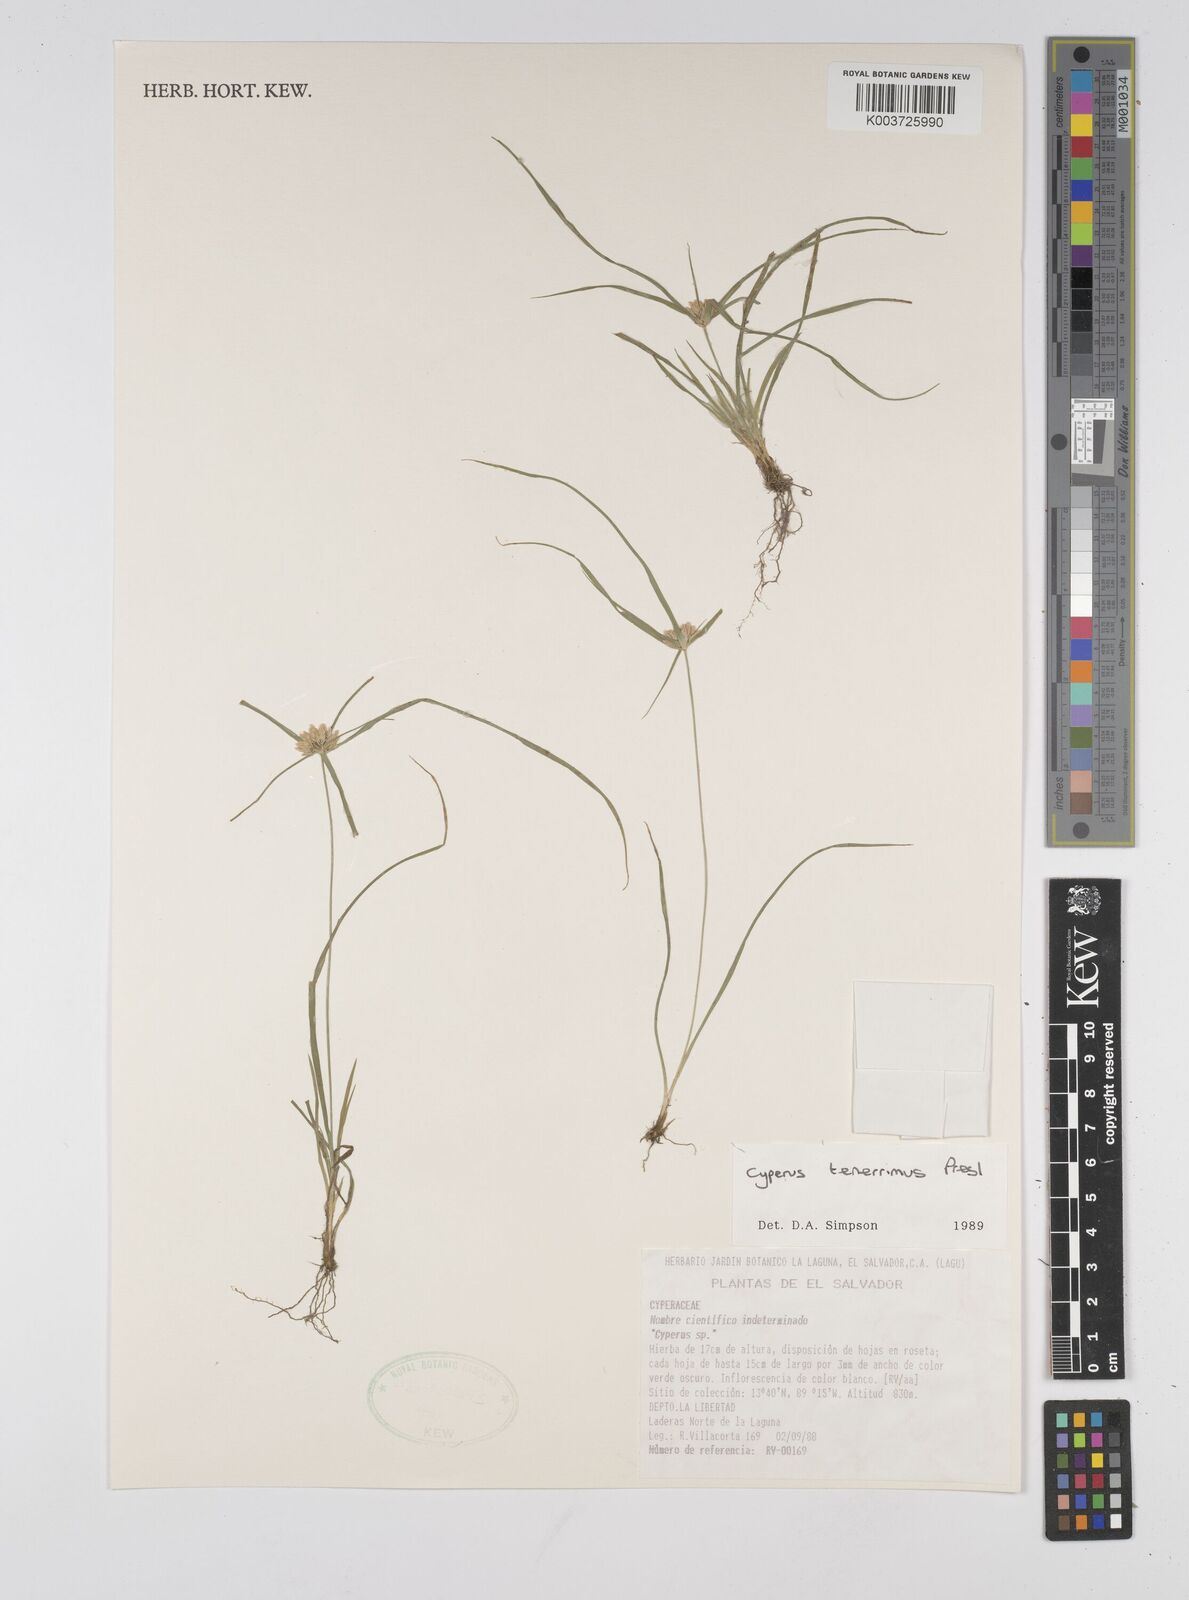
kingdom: Plantae
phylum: Tracheophyta
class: Liliopsida
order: Poales
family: Cyperaceae
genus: Cyperus
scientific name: Cyperus tenerrimus
